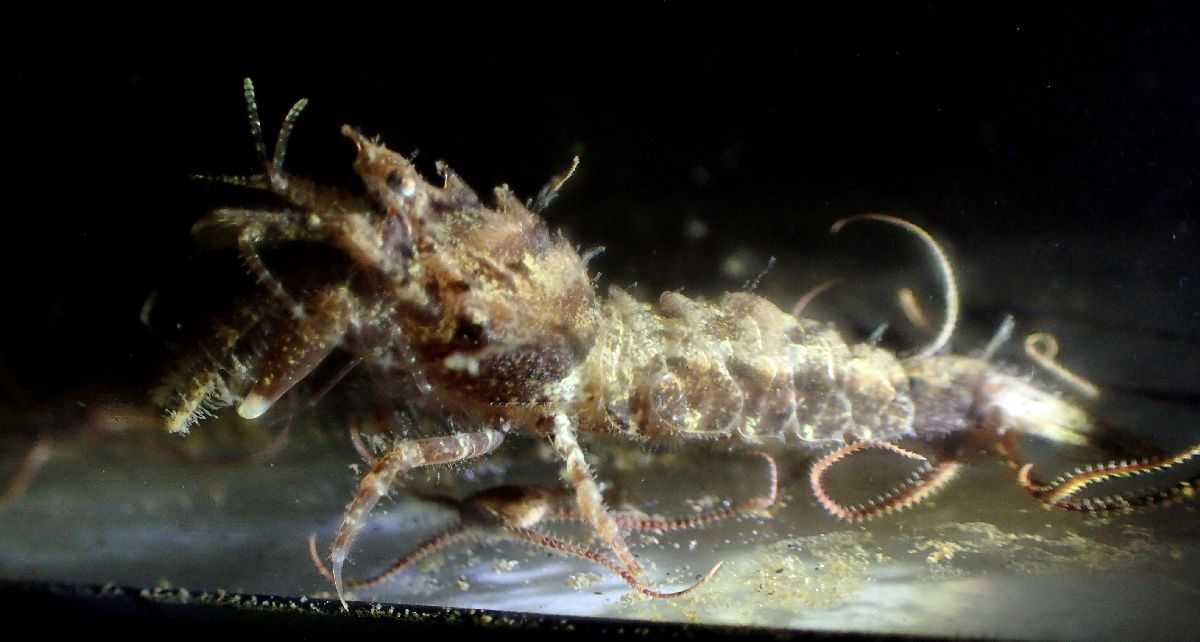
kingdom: Animalia
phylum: Arthropoda
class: Malacostraca
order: Decapoda
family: Crangonidae
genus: Sclerocrangon
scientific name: Sclerocrangon boreas
